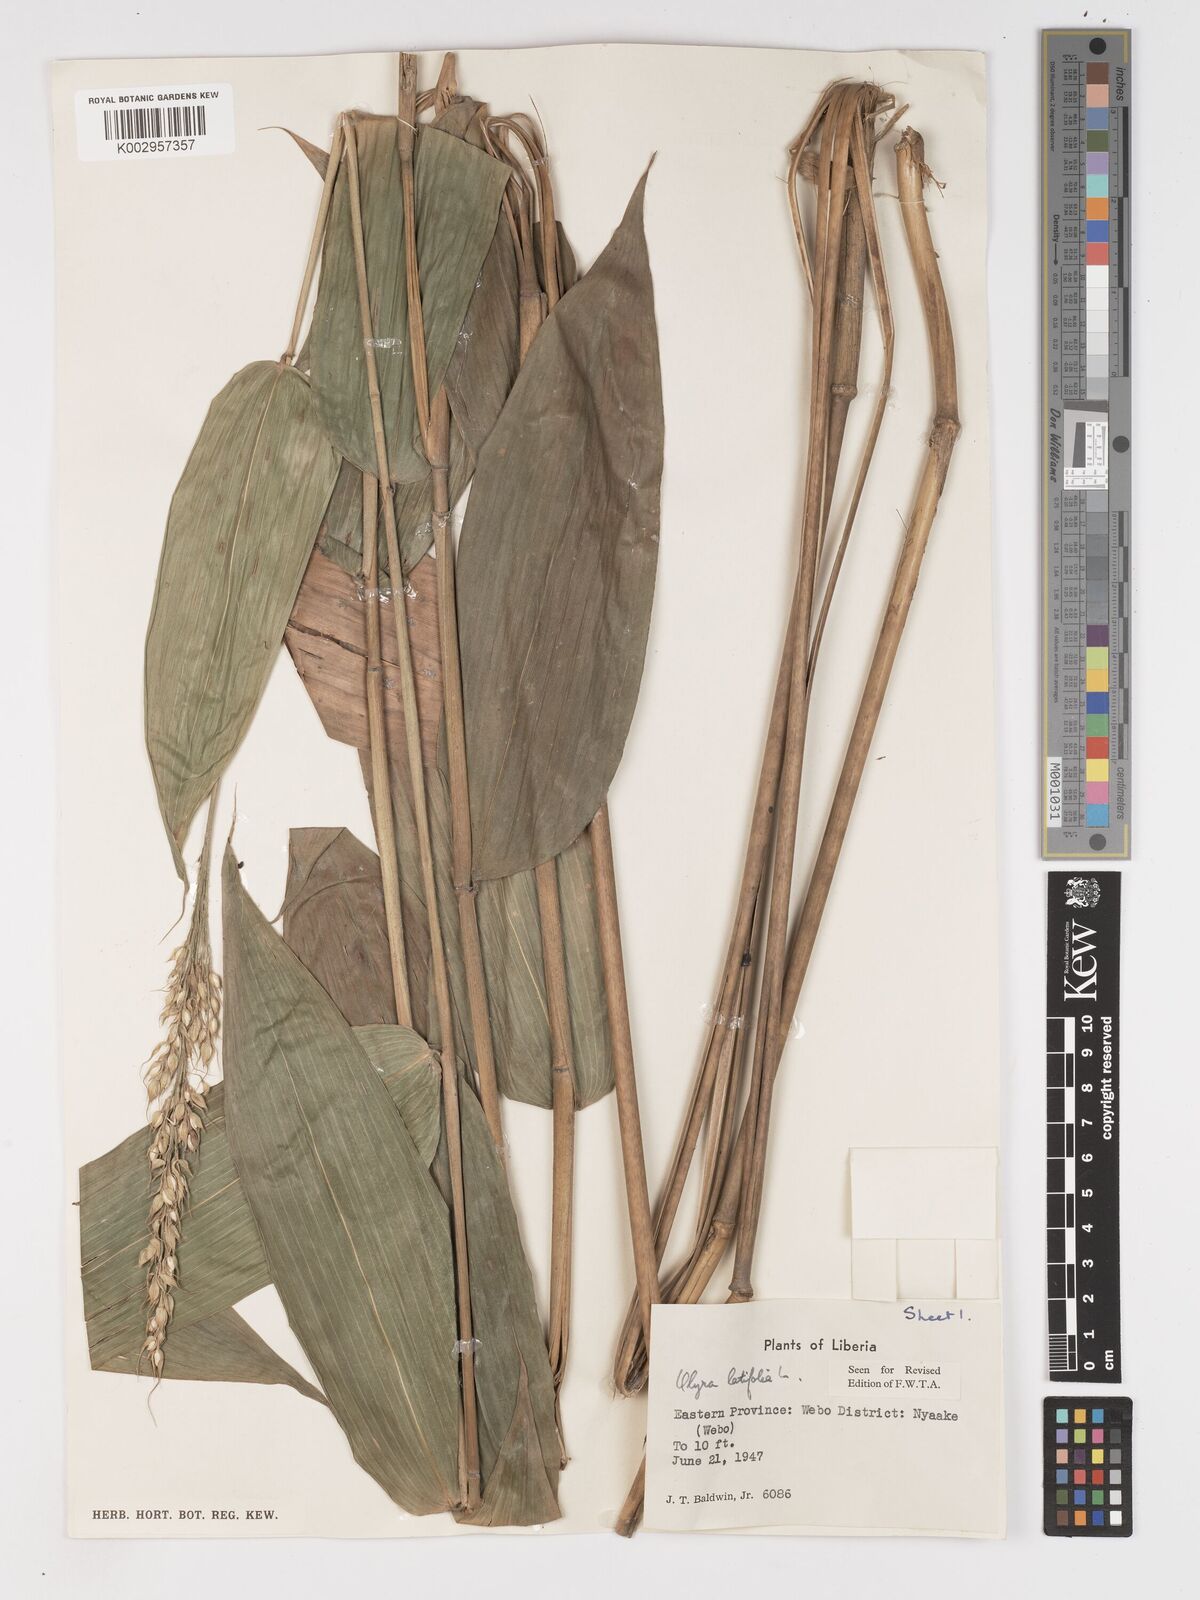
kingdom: Plantae
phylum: Tracheophyta
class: Liliopsida
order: Poales
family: Poaceae
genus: Olyra
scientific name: Olyra latifolia
